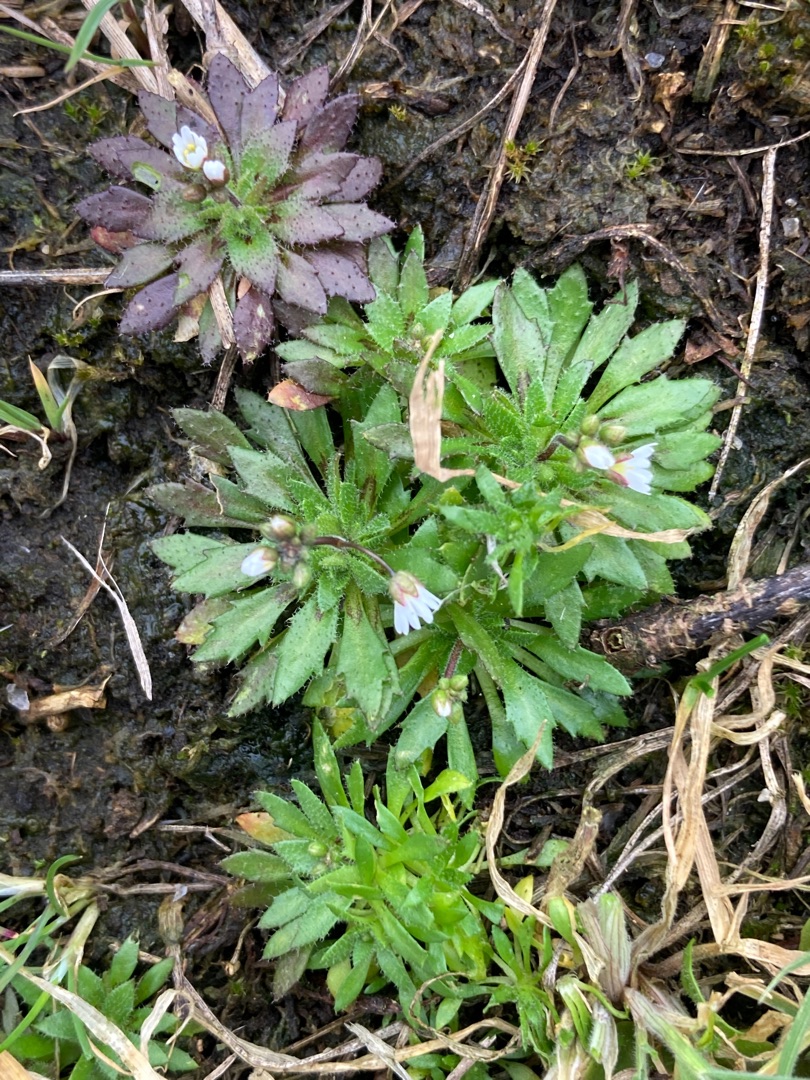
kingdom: Plantae
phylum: Tracheophyta
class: Magnoliopsida
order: Brassicales
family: Brassicaceae
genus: Draba
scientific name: Draba verna
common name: Vår-gæslingeblomst
